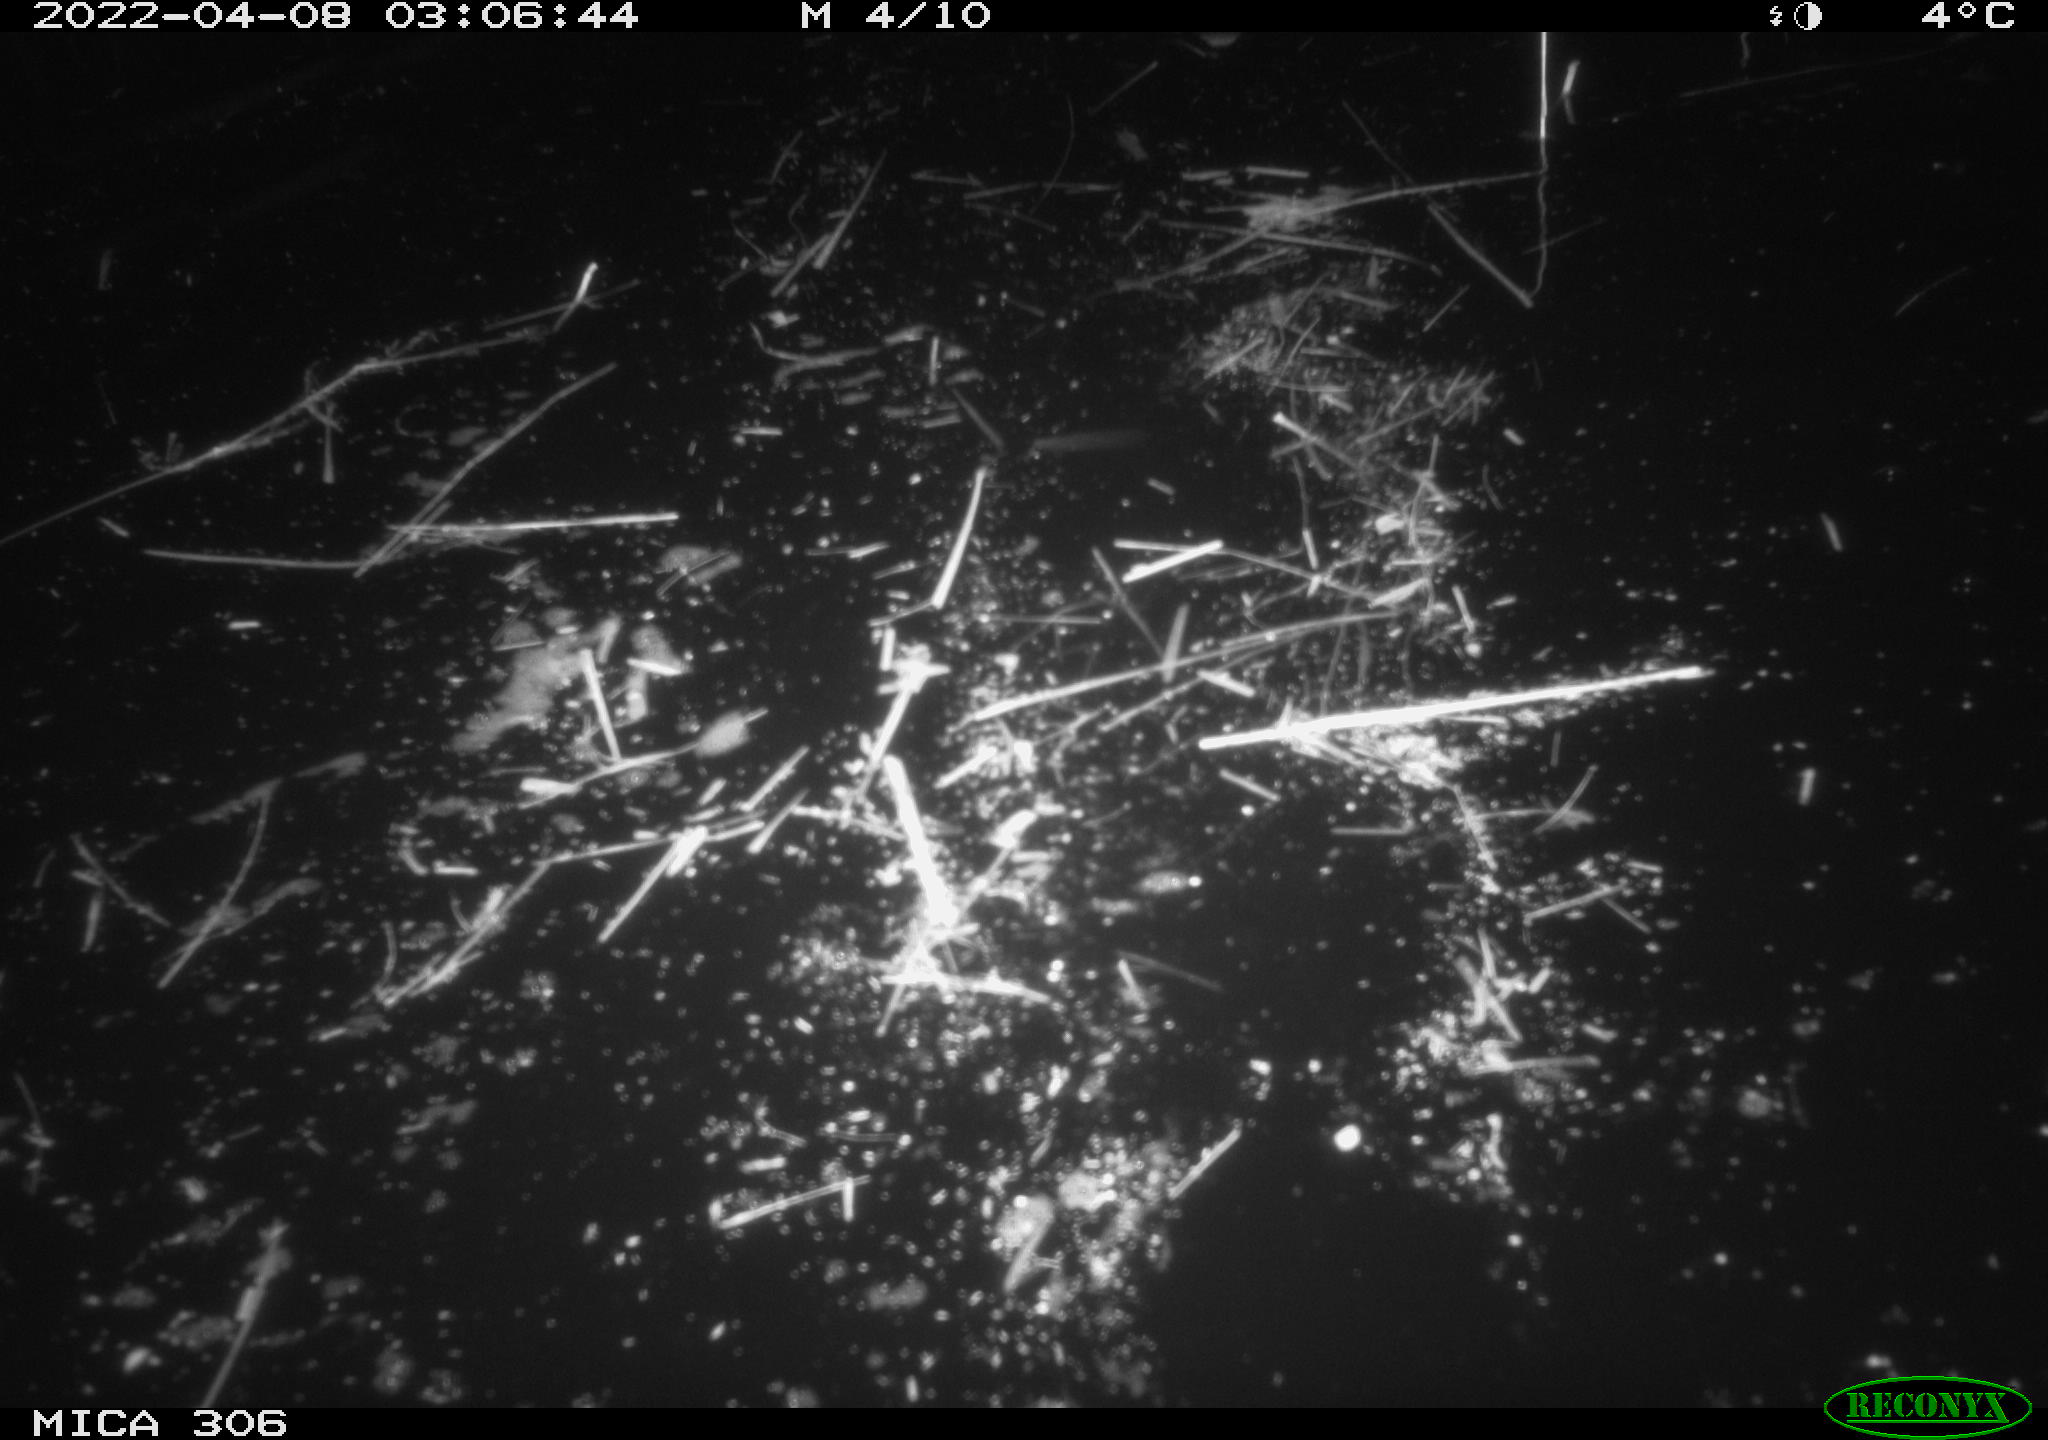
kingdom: Animalia
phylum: Chordata
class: Mammalia
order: Rodentia
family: Cricetidae
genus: Ondatra
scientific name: Ondatra zibethicus
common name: Muskrat
